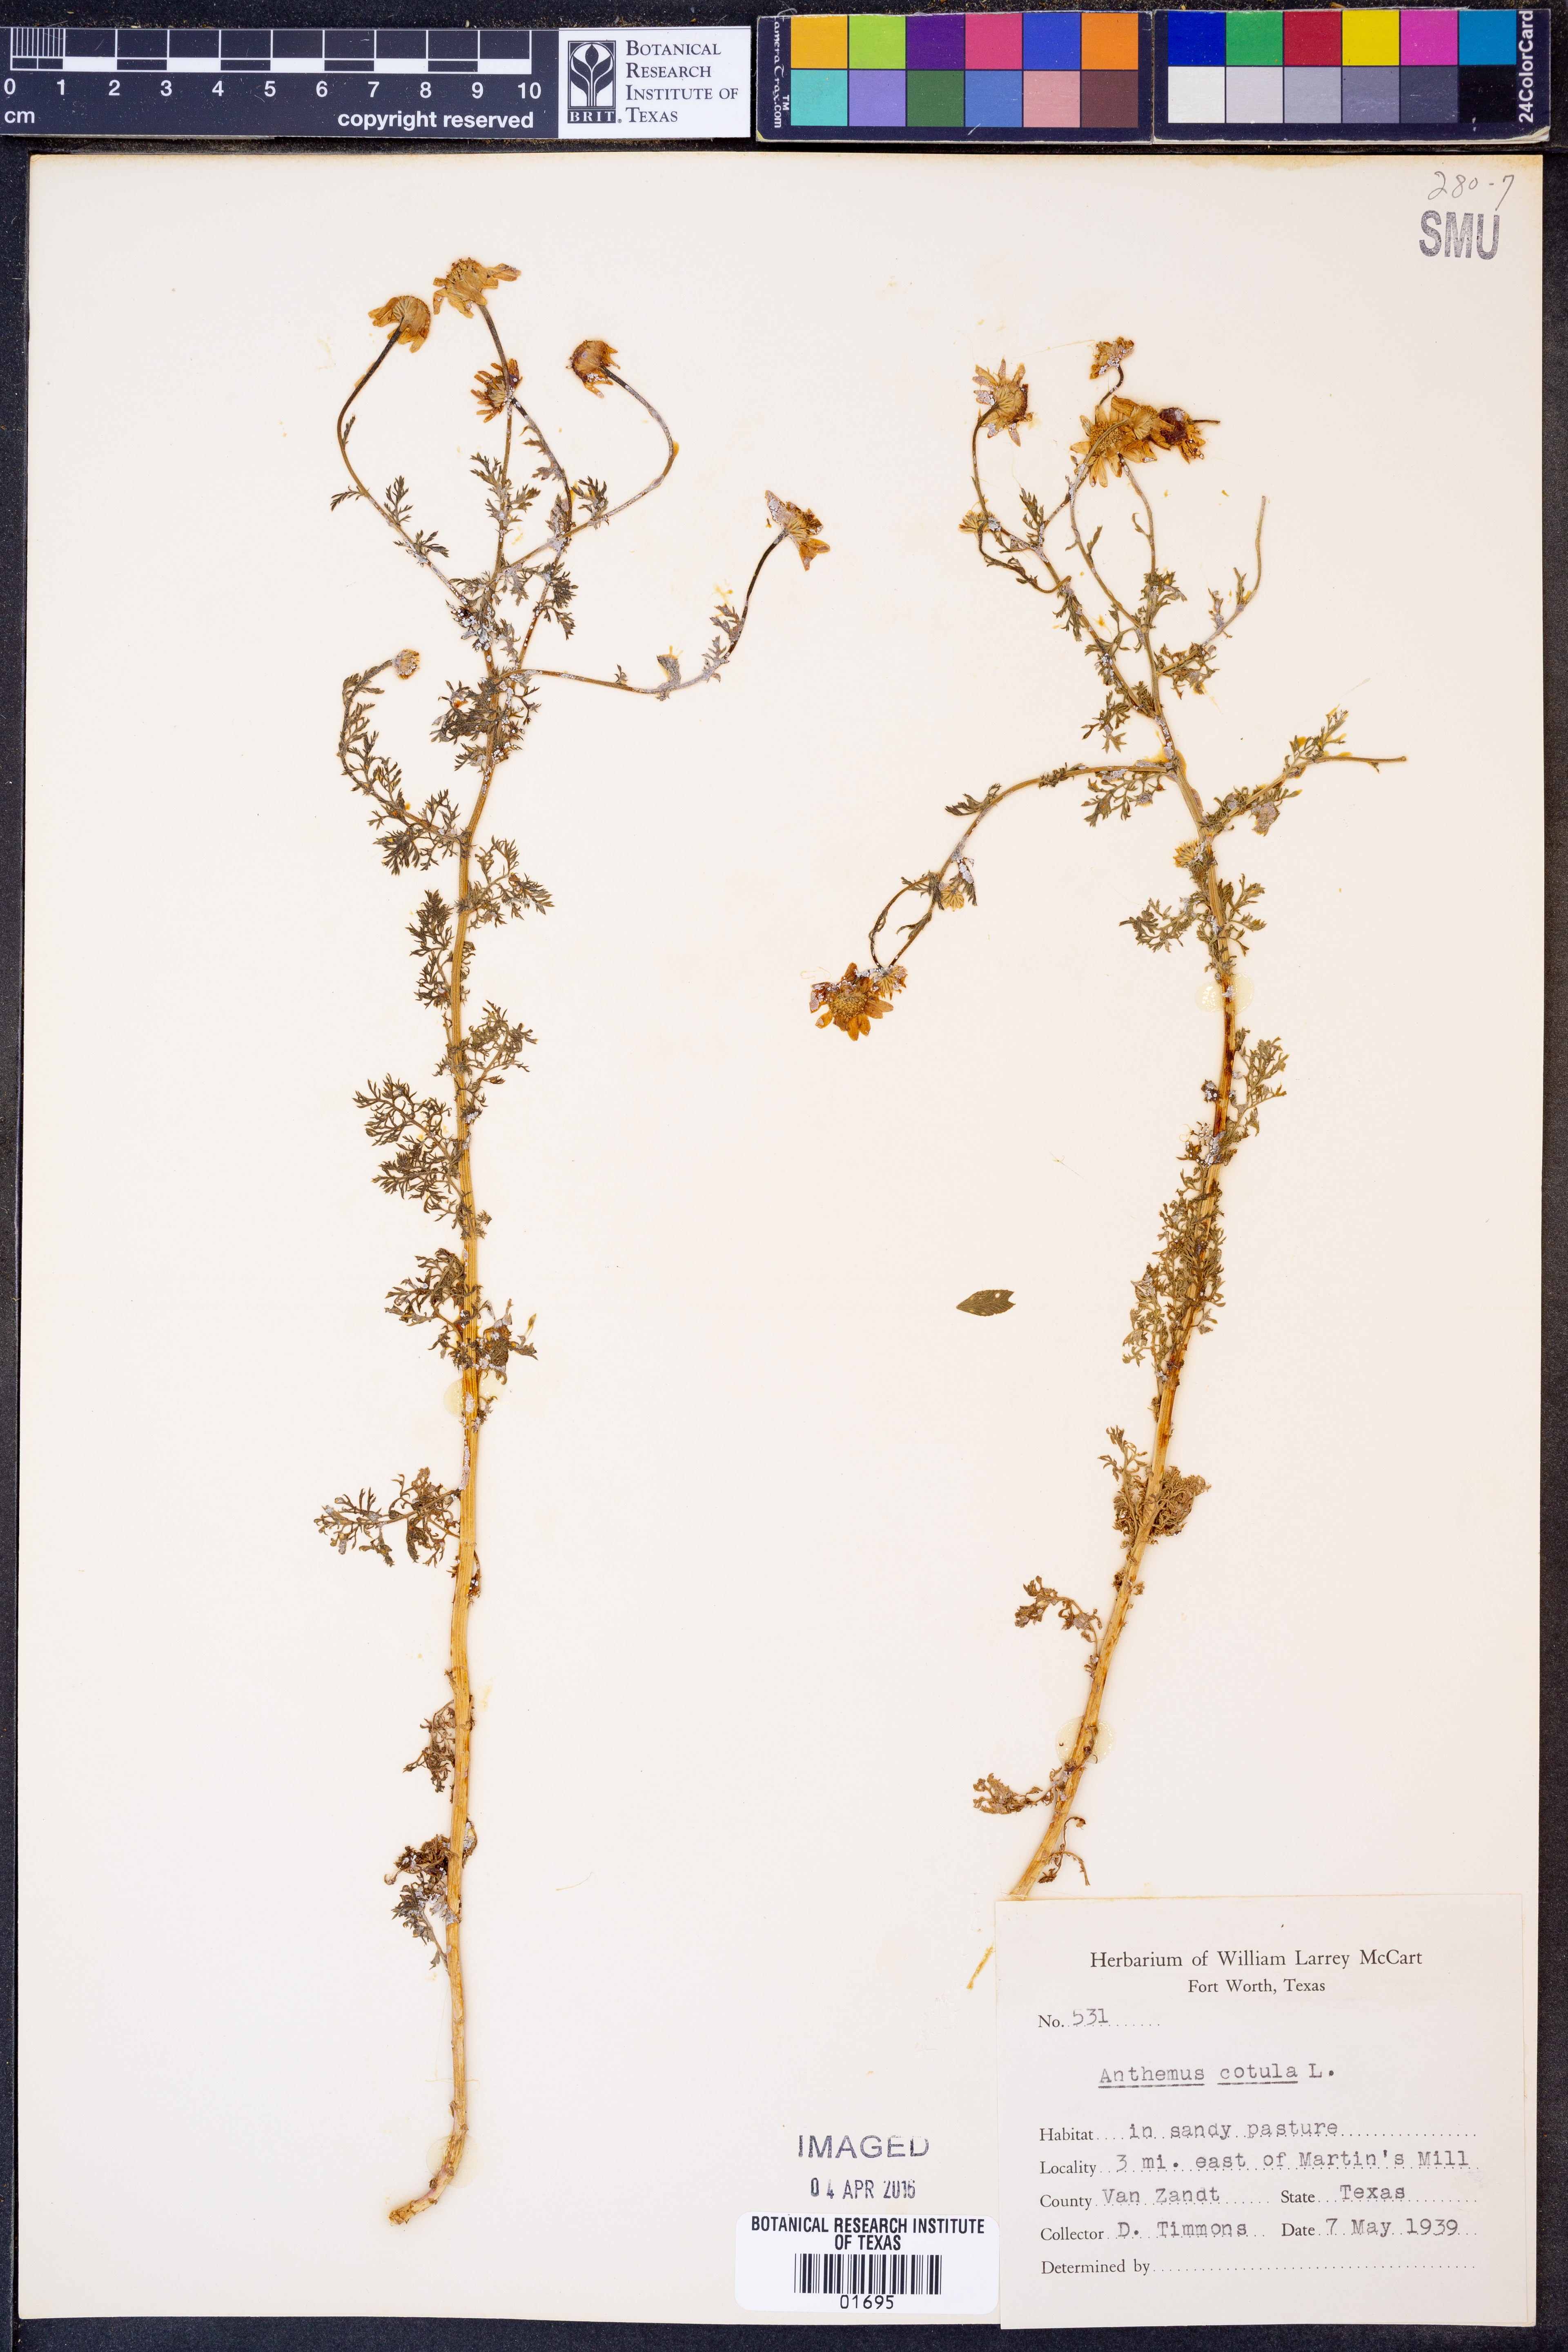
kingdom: Plantae
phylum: Tracheophyta
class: Magnoliopsida
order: Asterales
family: Asteraceae
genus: Anthemis
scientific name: Anthemis cotula
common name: Stinking chamomile
